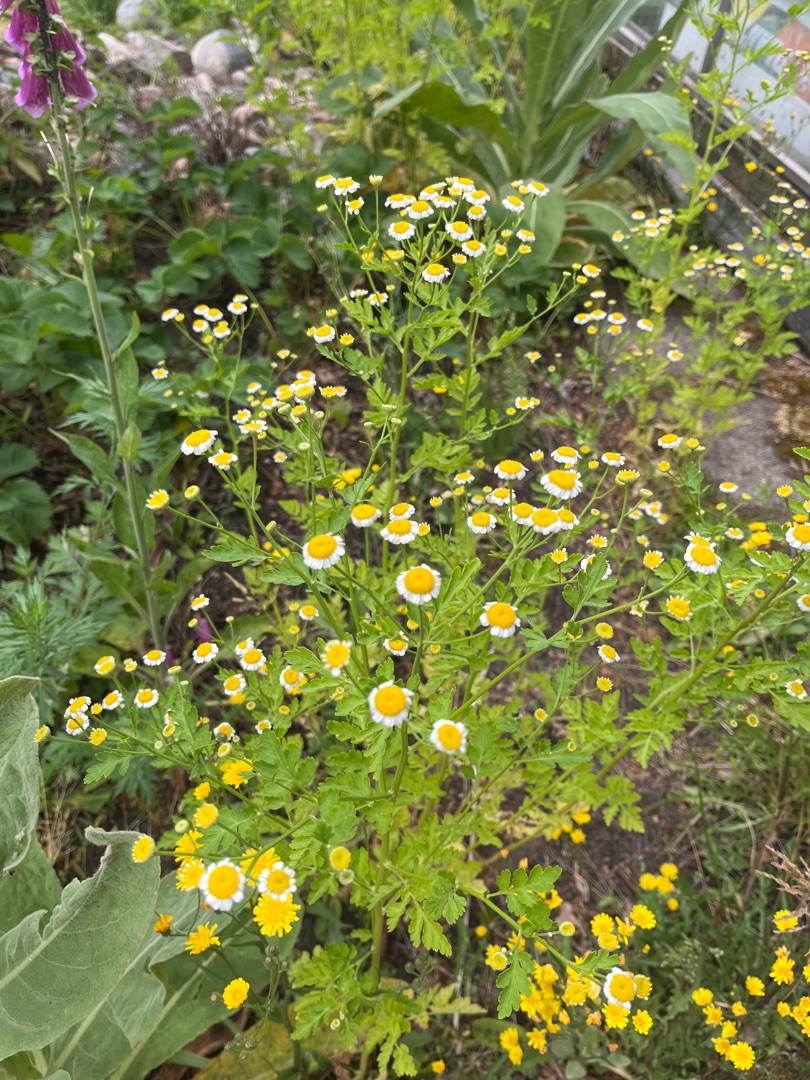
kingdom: Plantae
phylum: Tracheophyta
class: Magnoliopsida
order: Asterales
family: Asteraceae
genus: Tanacetum
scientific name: Tanacetum parthenium
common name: Matrem
